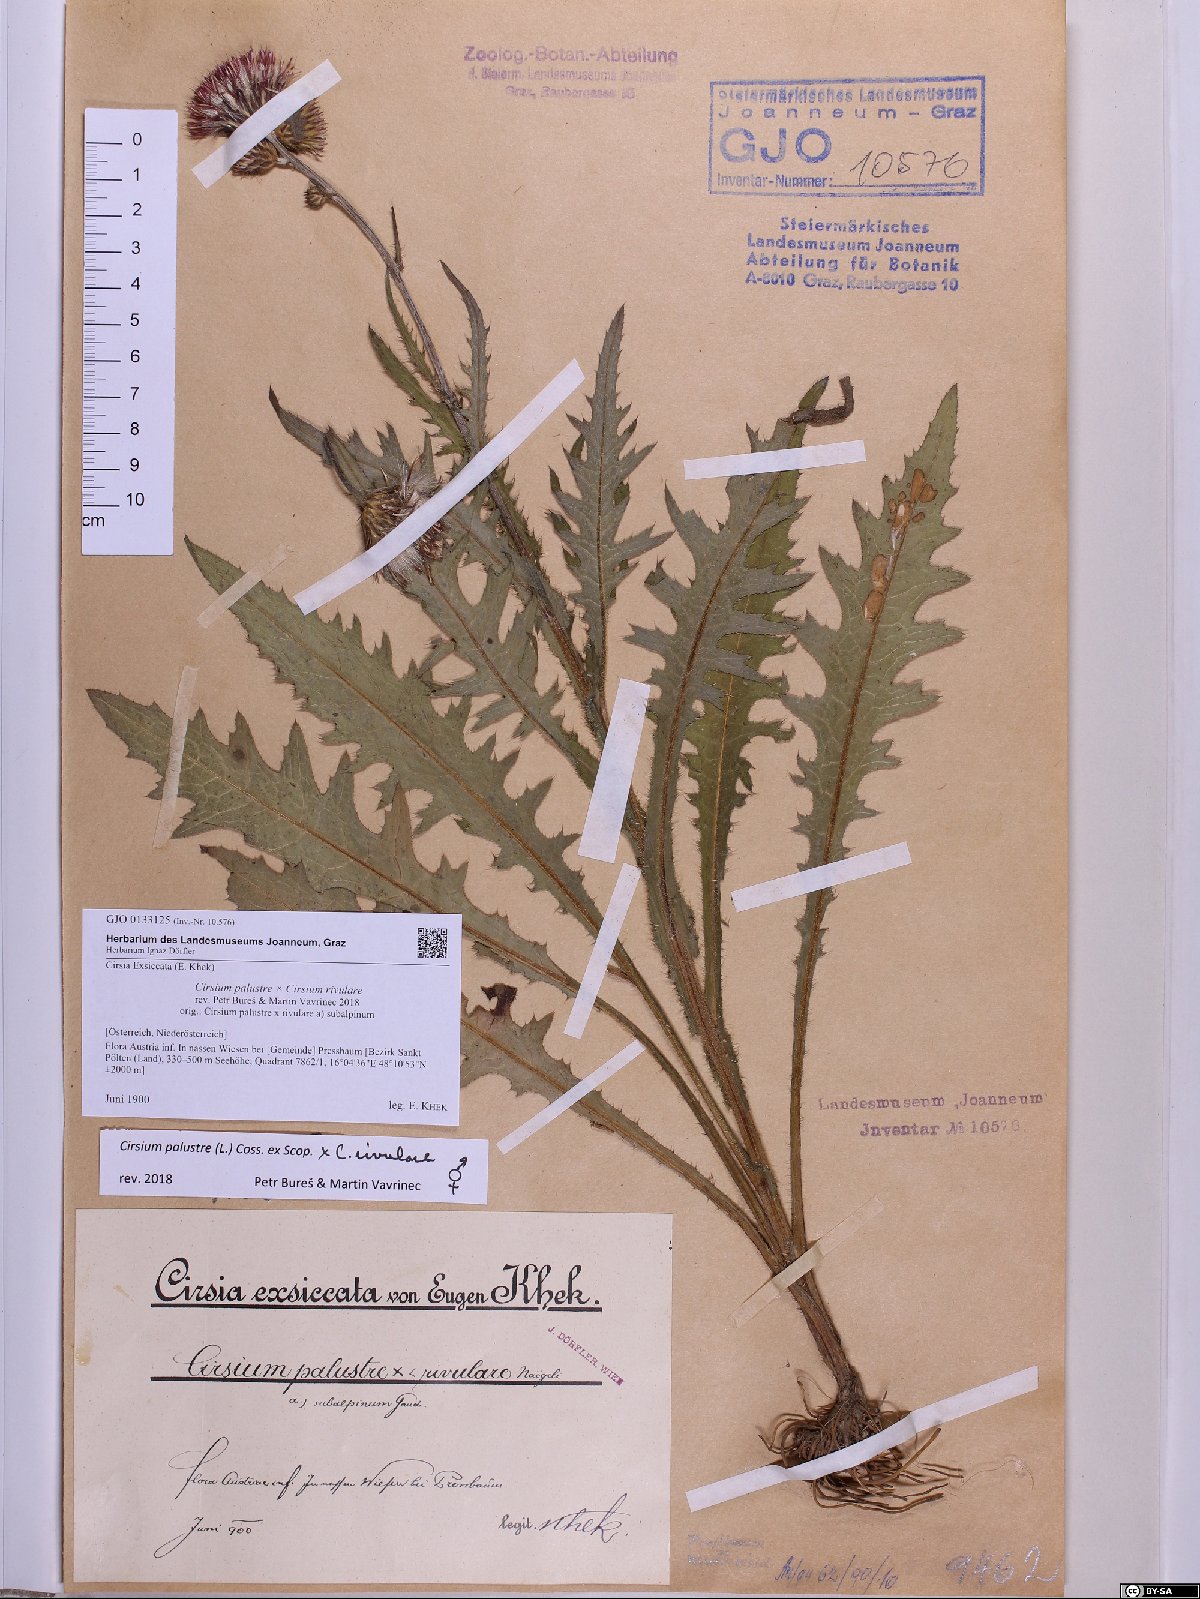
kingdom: Plantae
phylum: Tracheophyta
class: Magnoliopsida
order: Asterales
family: Asteraceae
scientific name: Asteraceae
